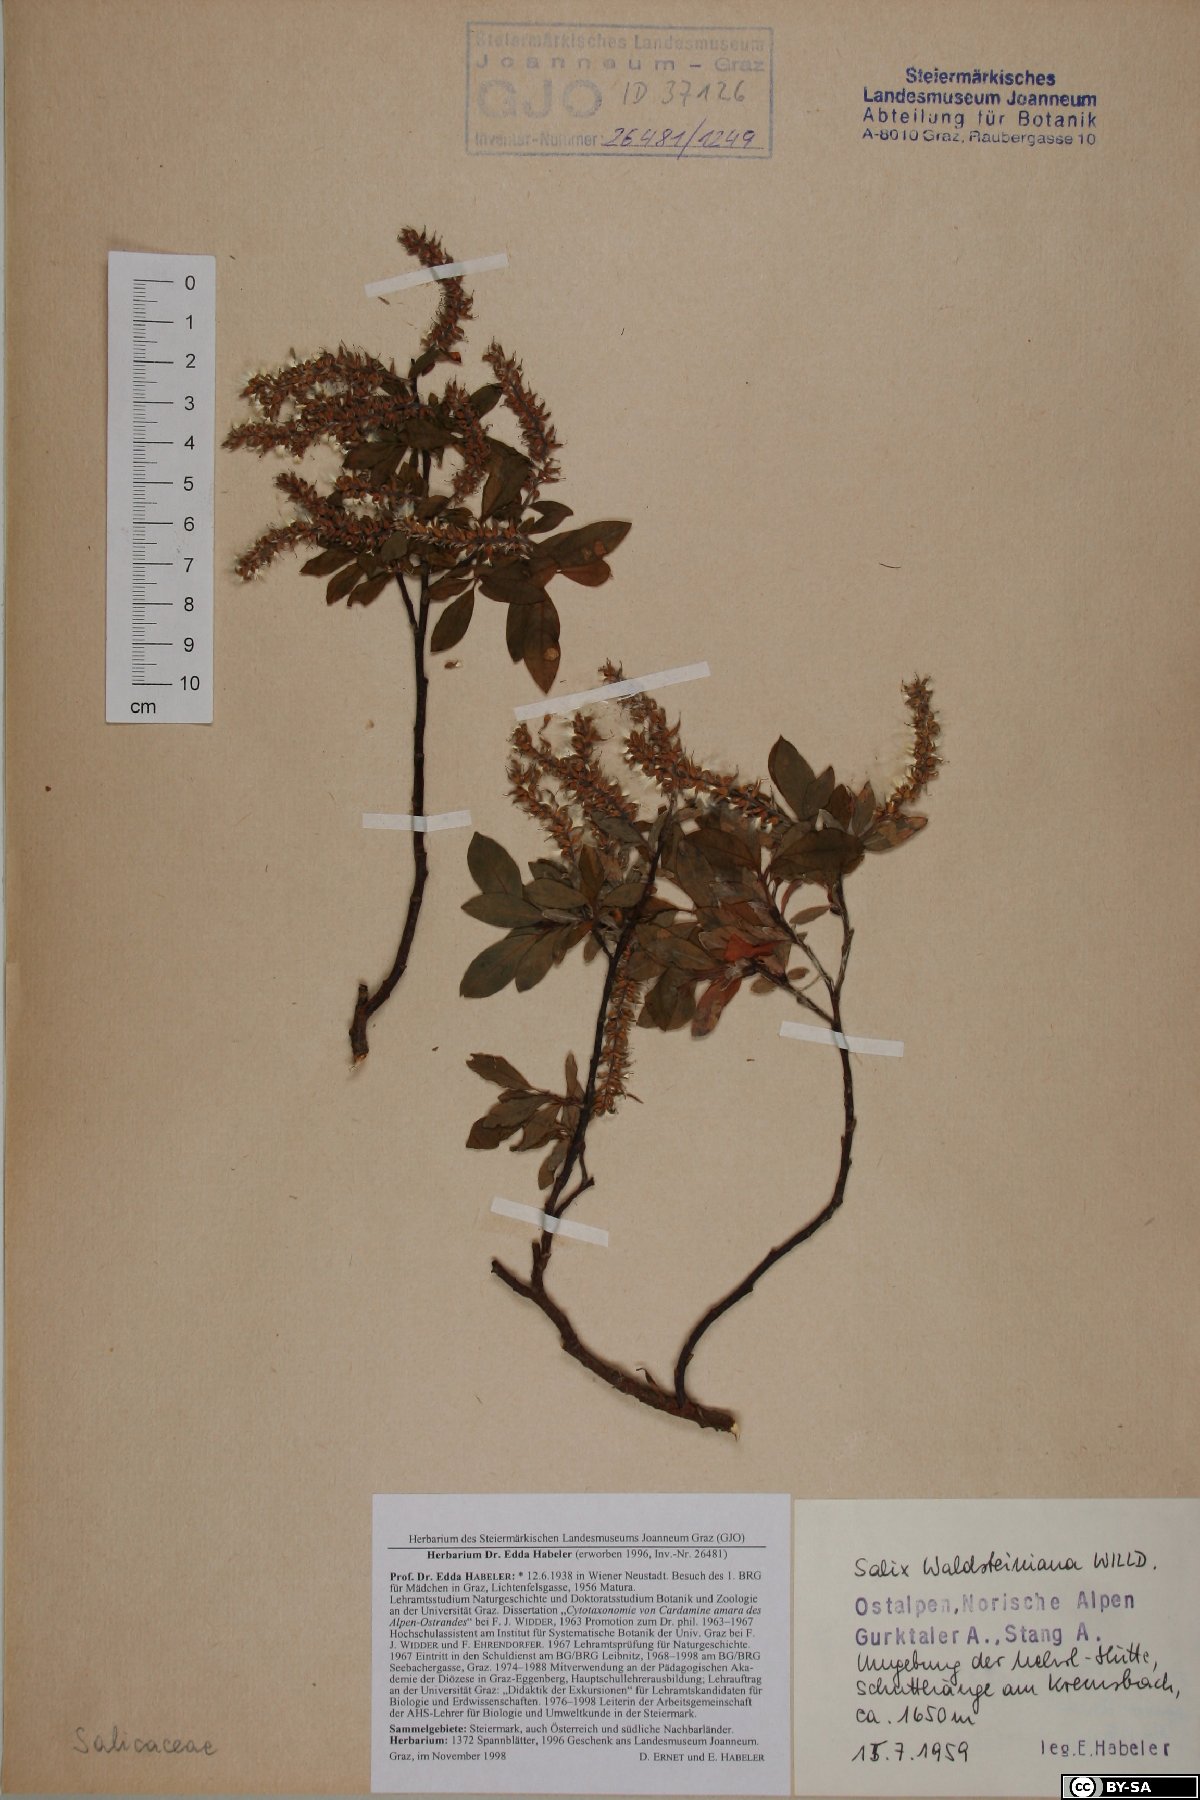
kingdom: Plantae
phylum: Tracheophyta
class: Magnoliopsida
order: Malpighiales
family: Salicaceae
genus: Salix
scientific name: Salix waldsteiniana
